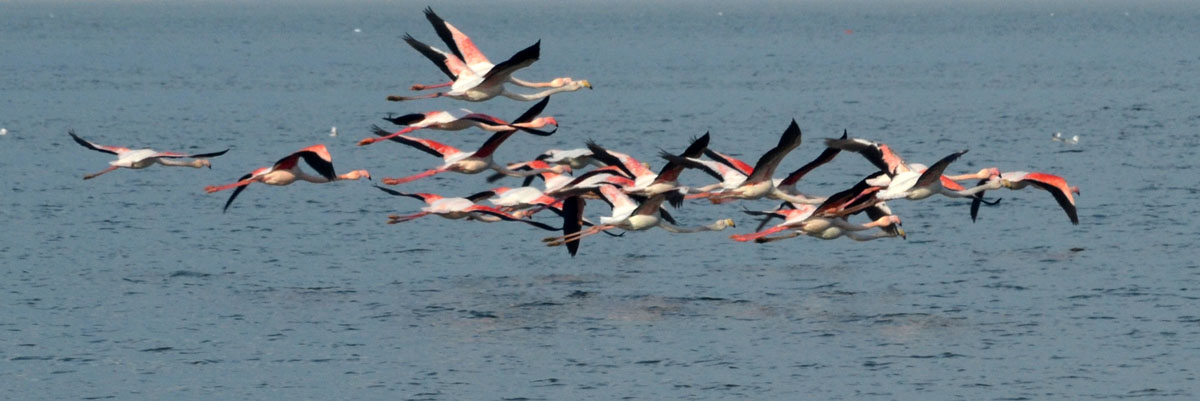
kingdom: Animalia
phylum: Chordata
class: Aves
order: Phoenicopteriformes
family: Phoenicopteridae
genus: Phoenicopterus
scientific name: Phoenicopterus roseus
